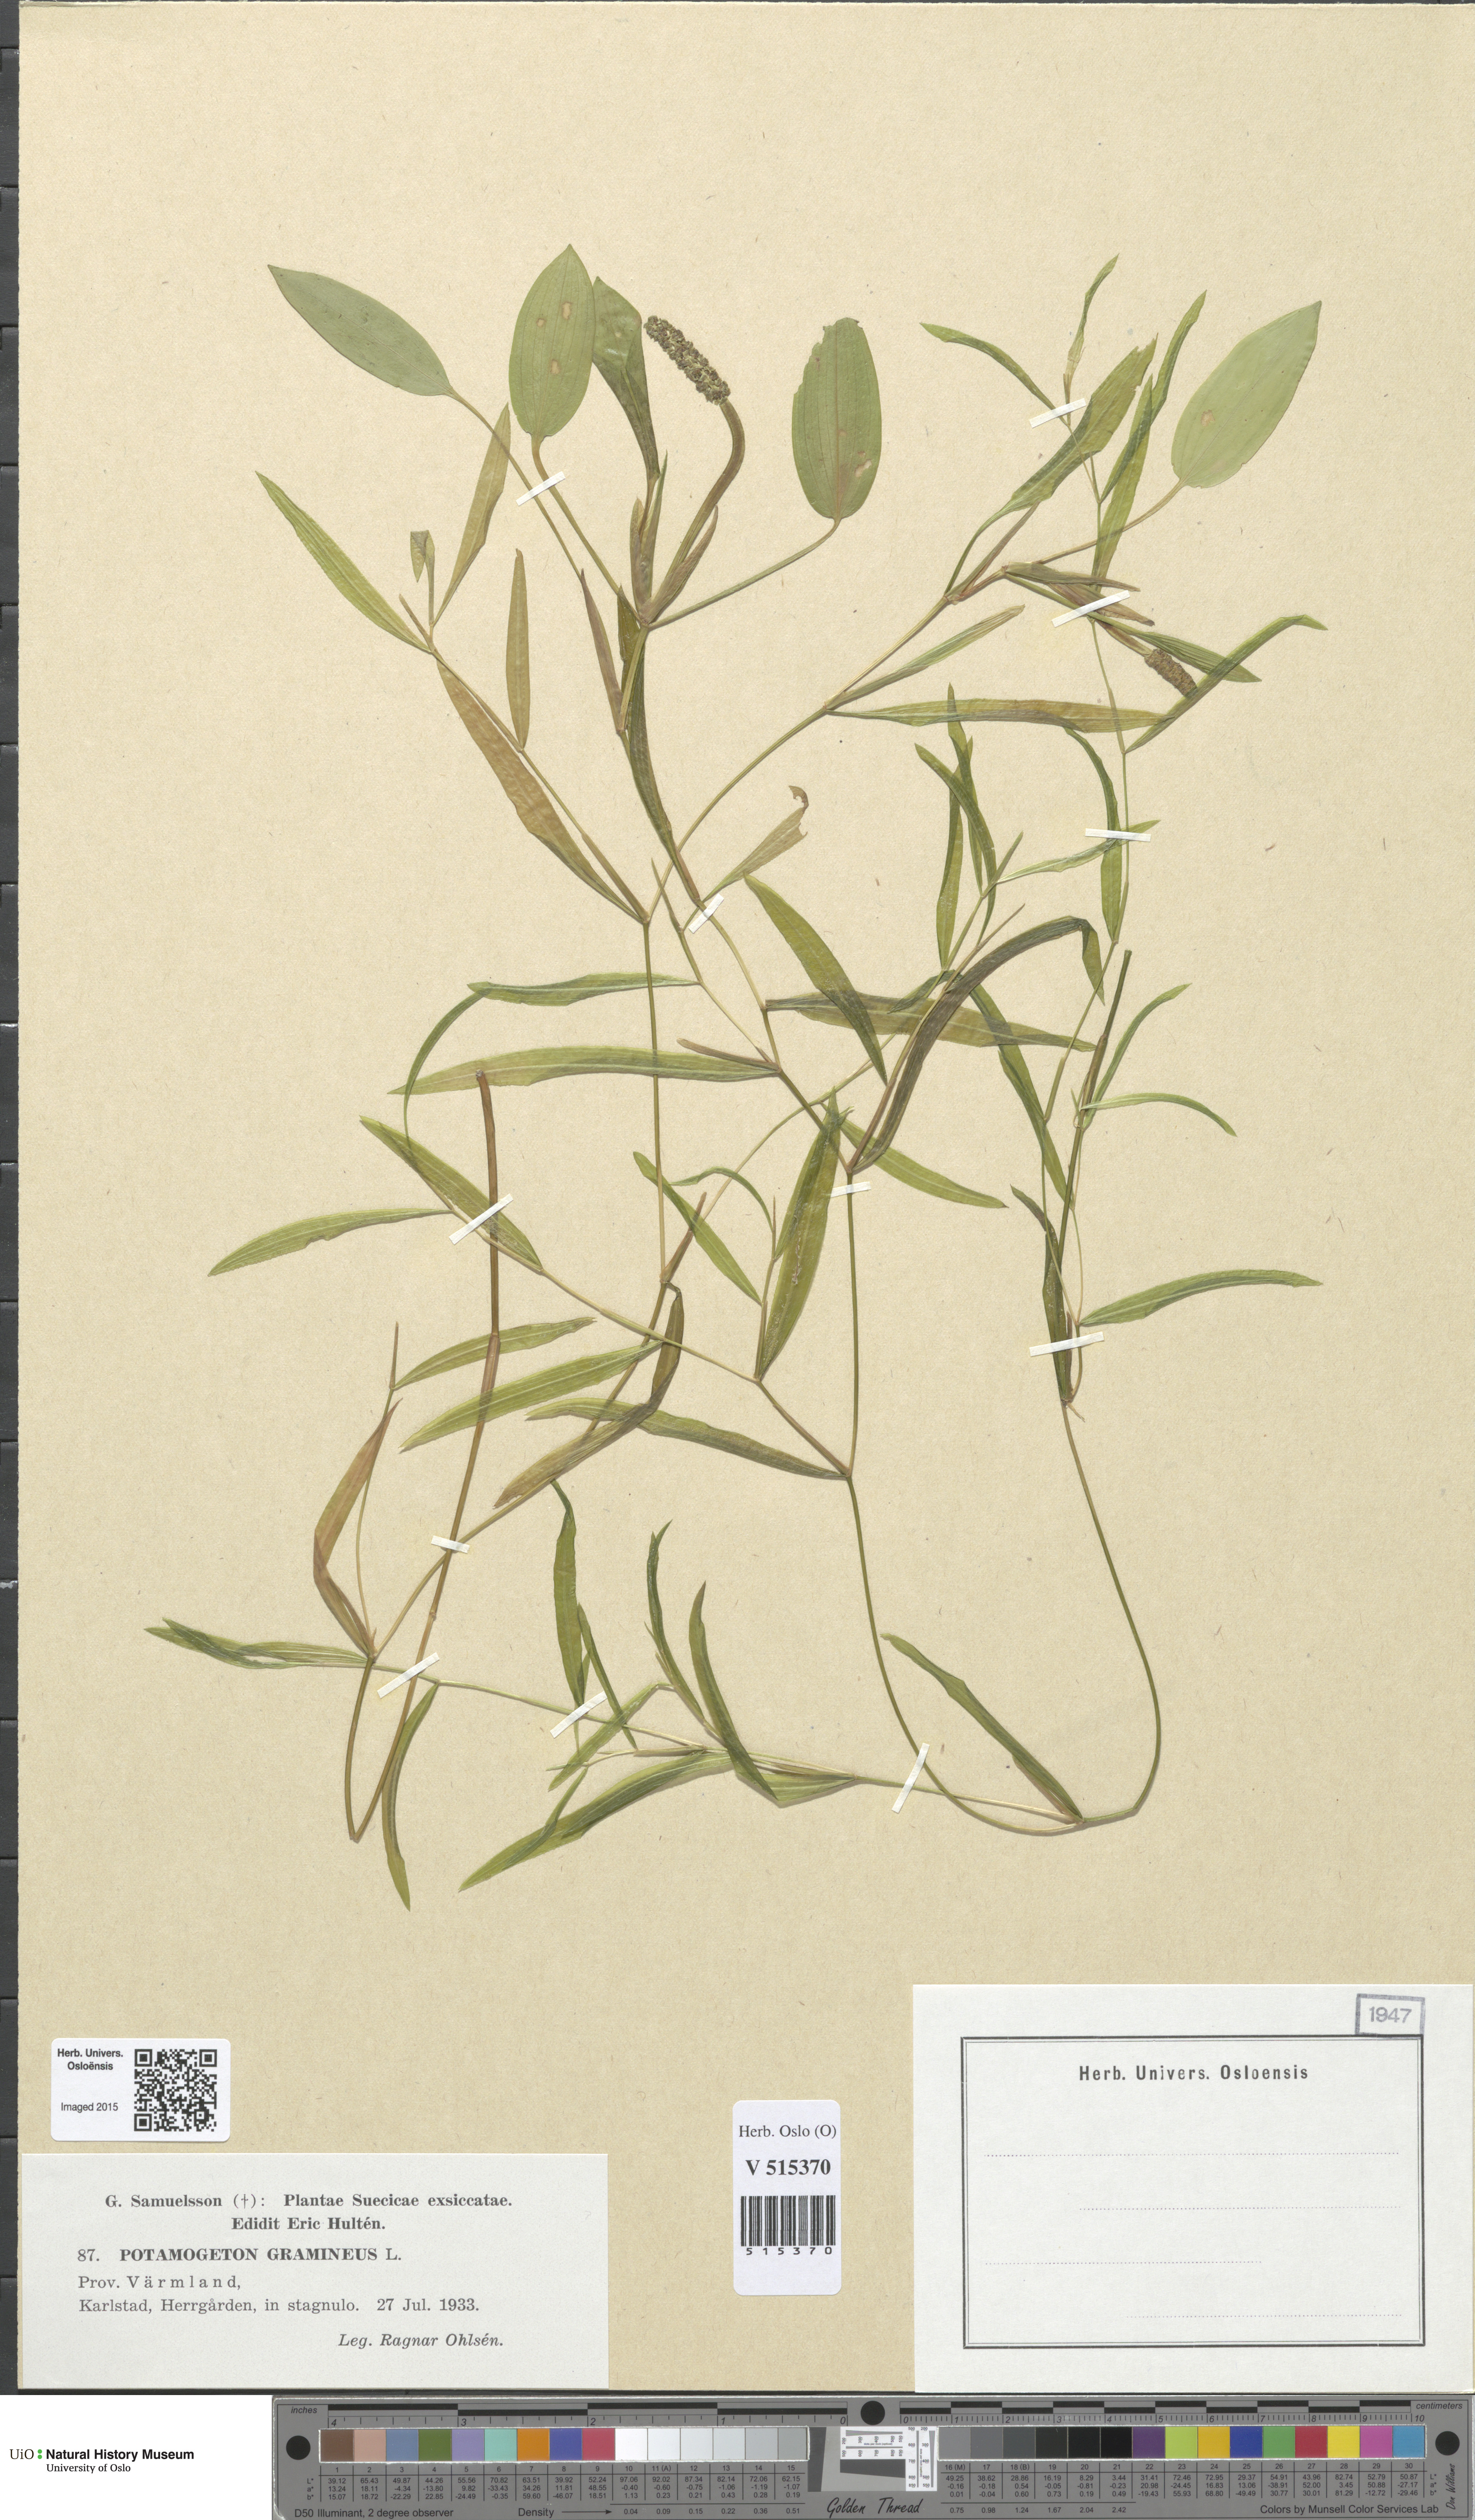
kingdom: Plantae
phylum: Tracheophyta
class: Liliopsida
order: Alismatales
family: Potamogetonaceae
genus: Potamogeton
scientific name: Potamogeton gramineus
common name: Various-leaved pondweed
